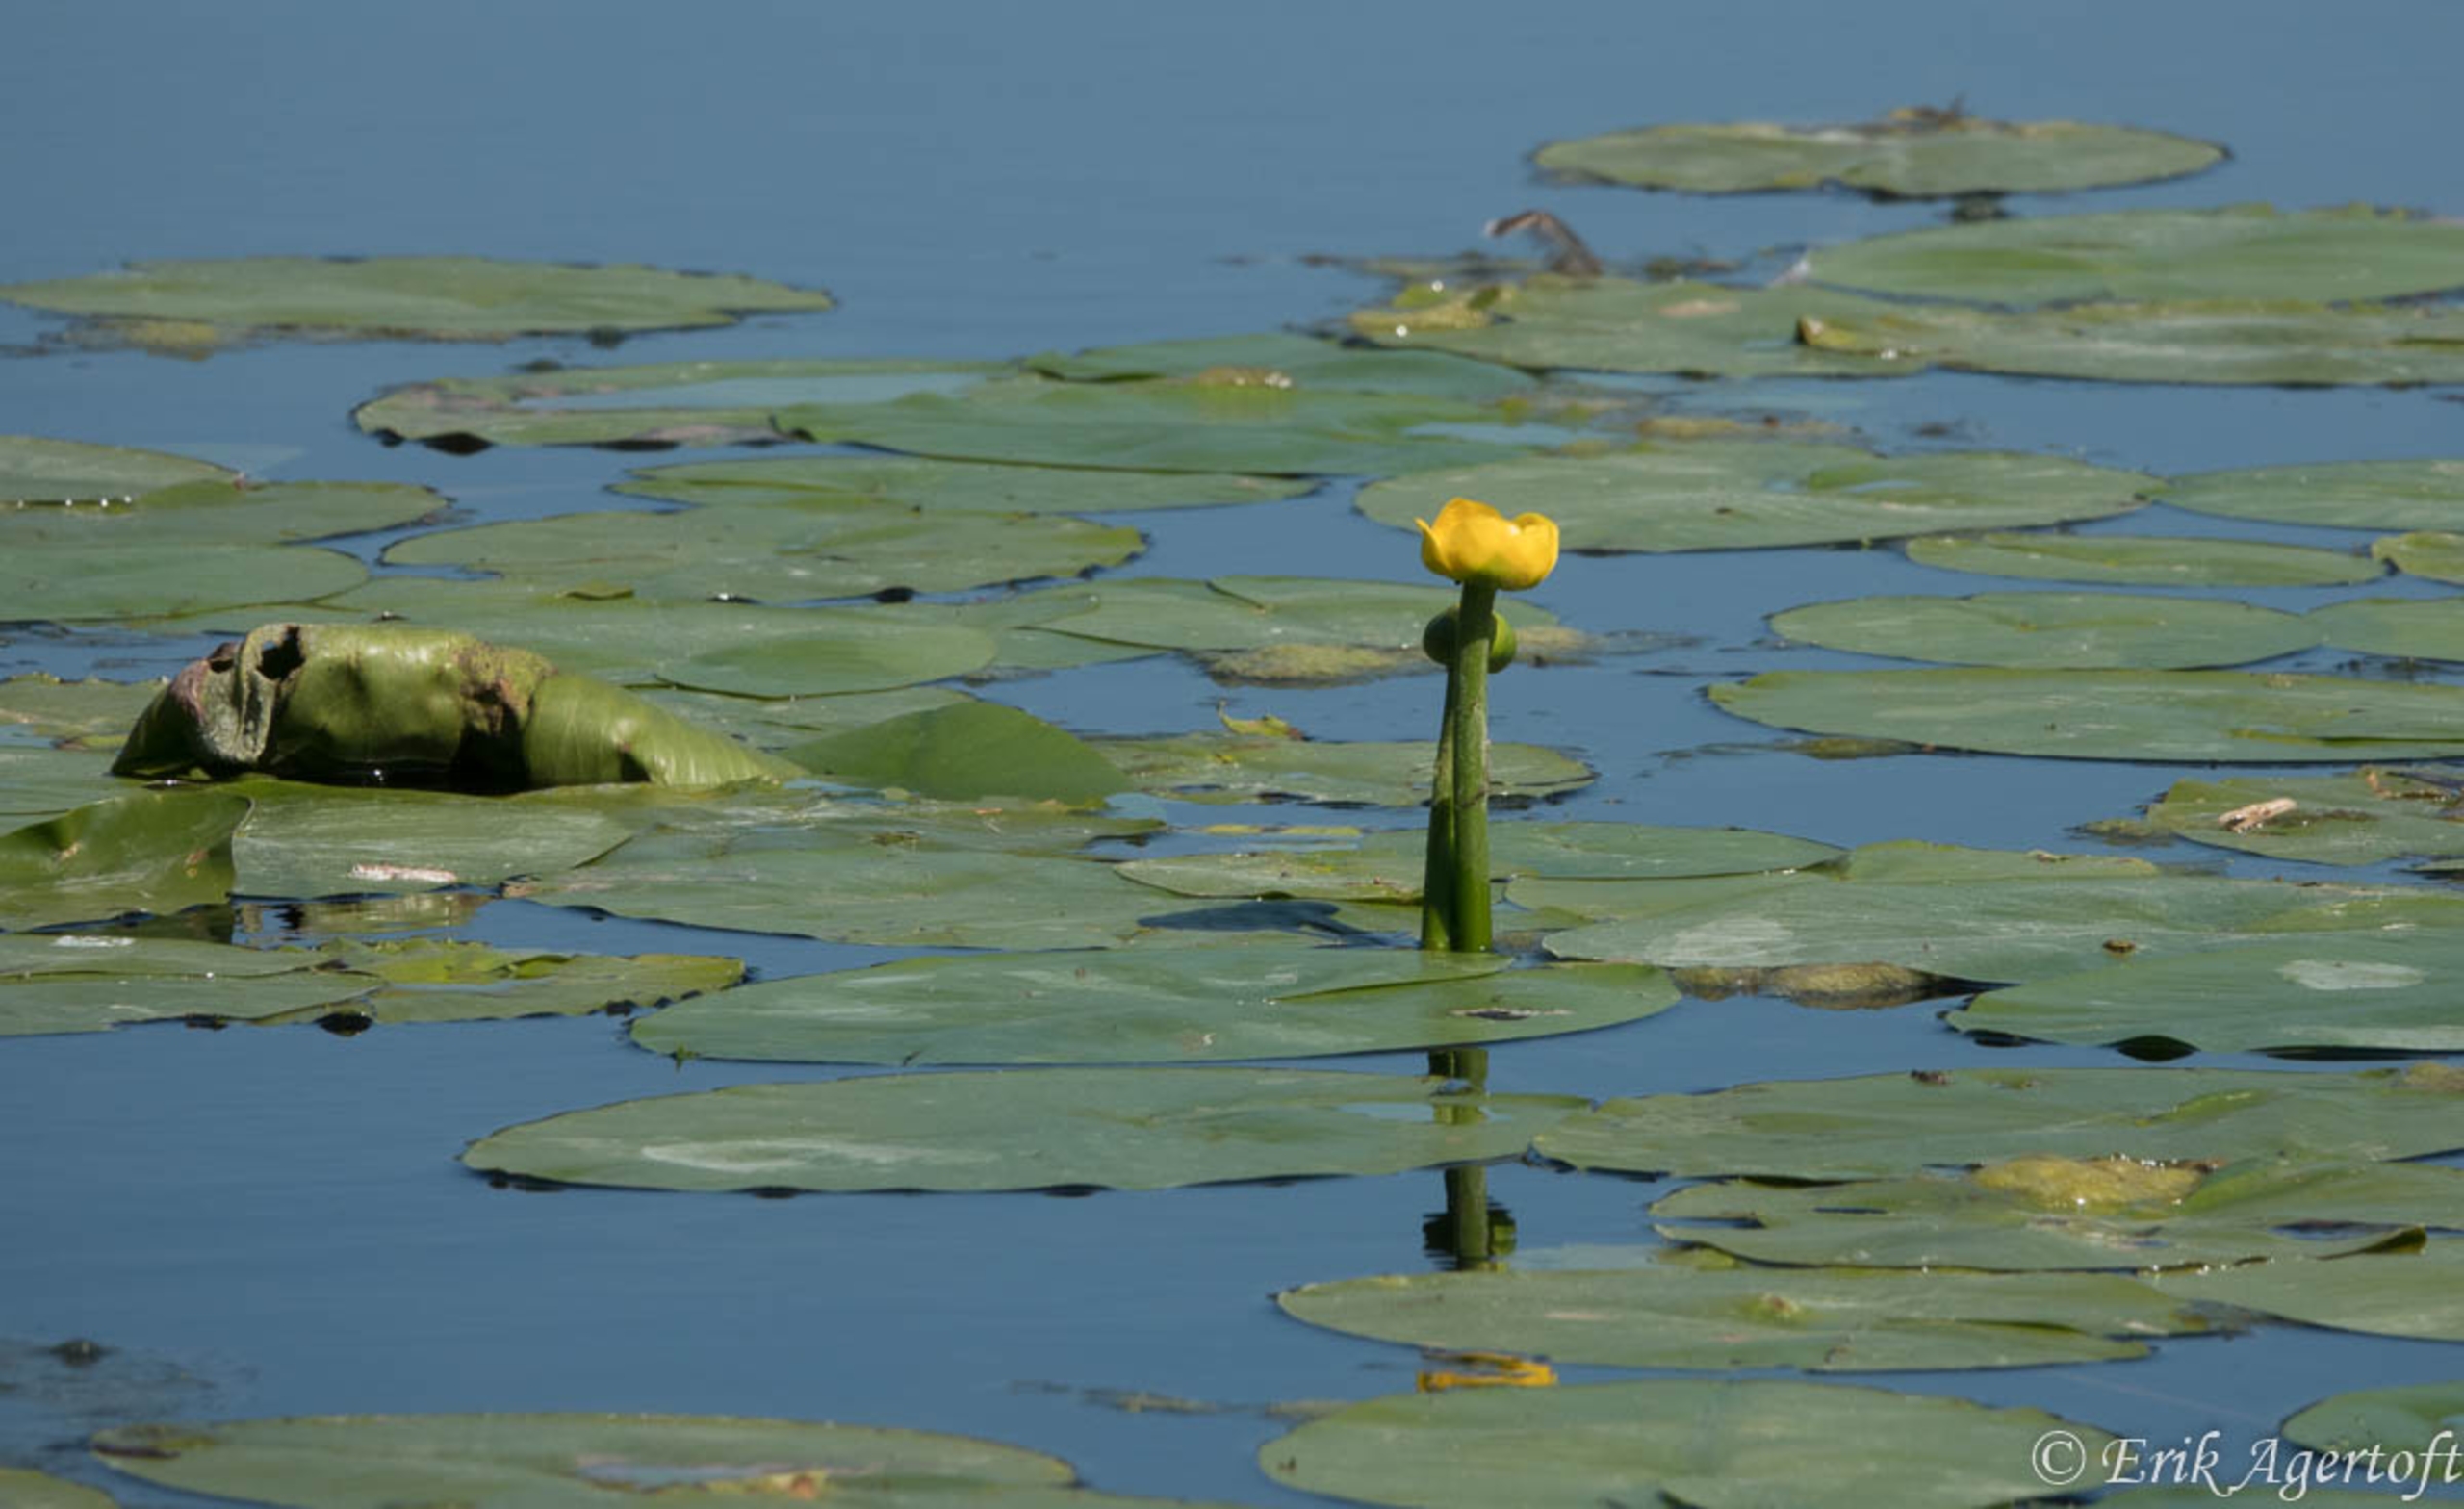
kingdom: Plantae
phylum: Tracheophyta
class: Magnoliopsida
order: Nymphaeales
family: Nymphaeaceae
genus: Nuphar
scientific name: Nuphar lutea
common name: Gul åkande
